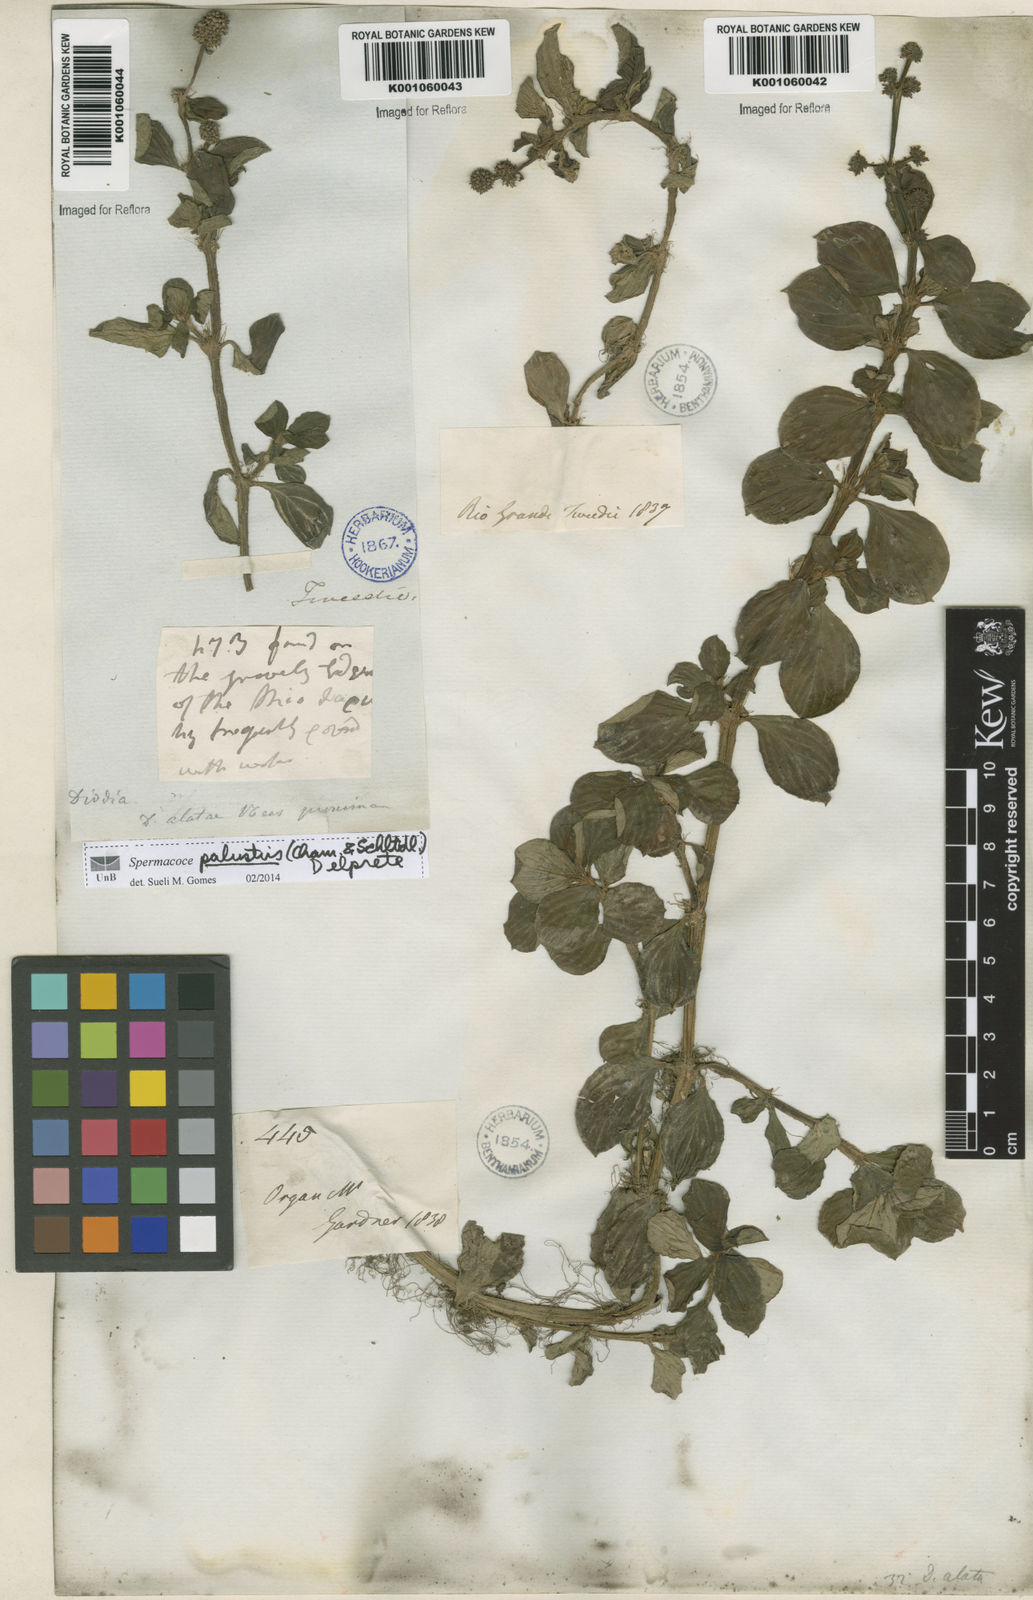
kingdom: Plantae
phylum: Tracheophyta
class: Magnoliopsida
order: Gentianales
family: Rubiaceae
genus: Galianthe
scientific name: Galianthe palustris
